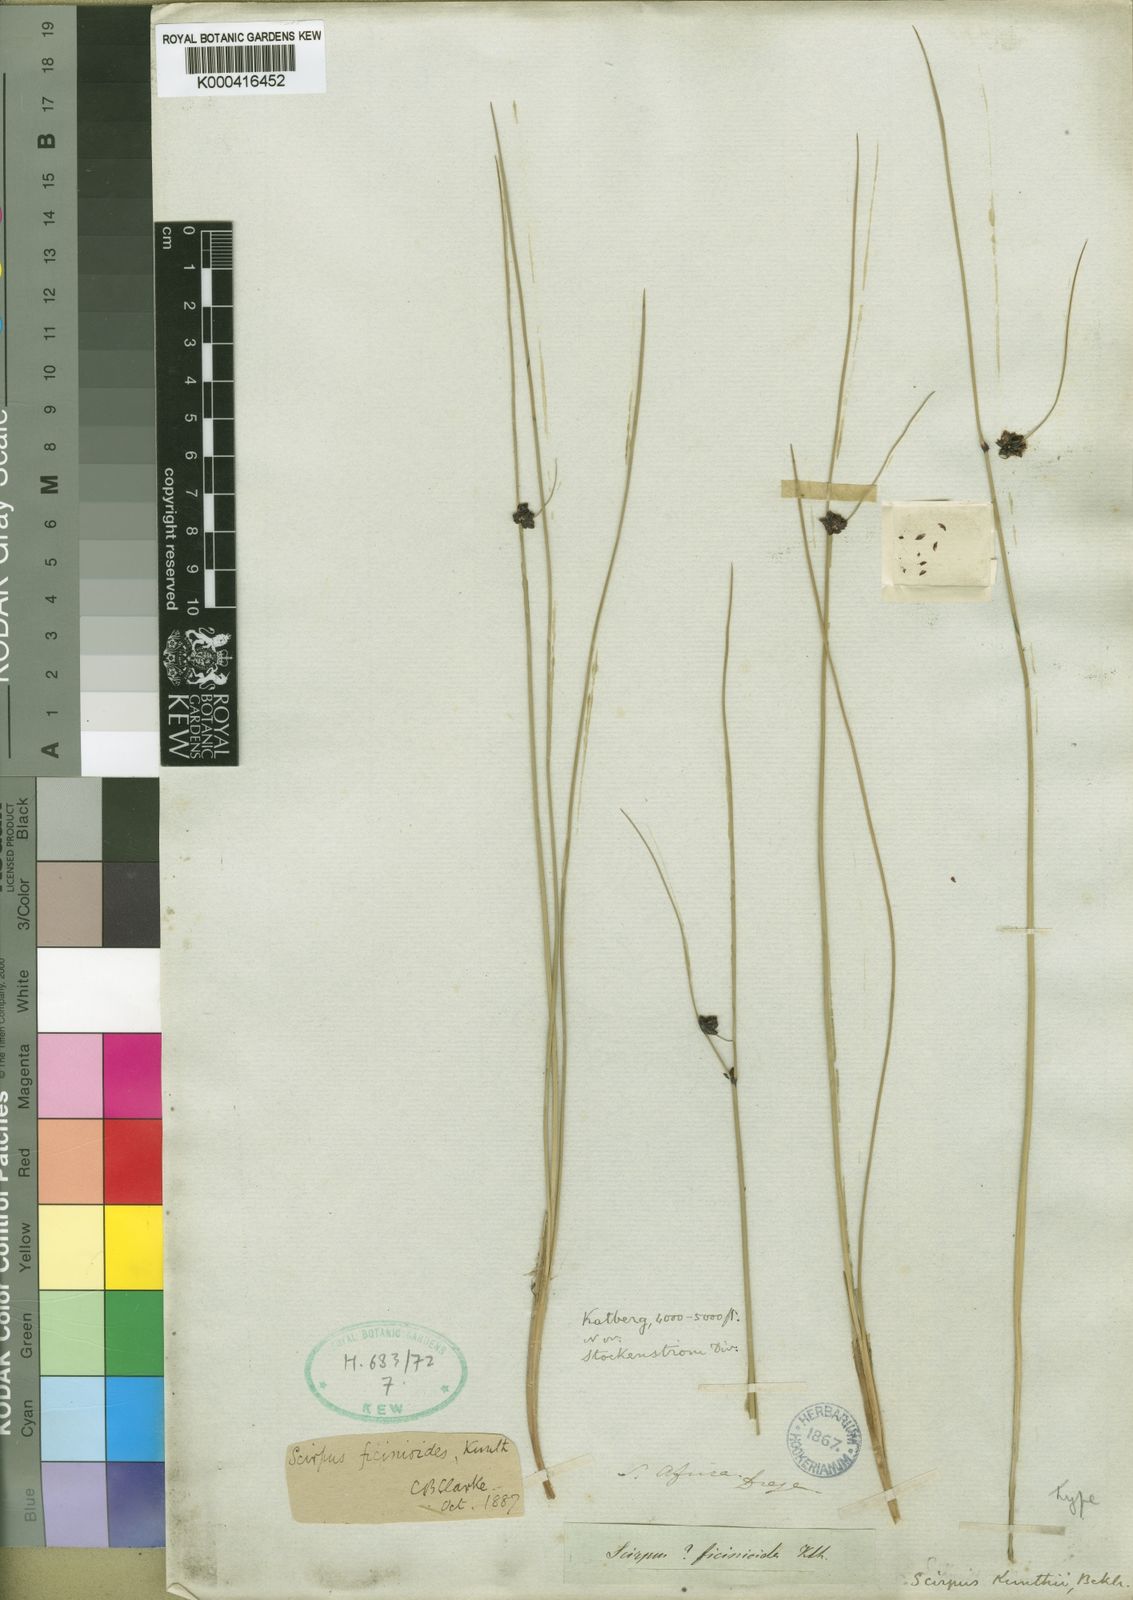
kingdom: Plantae
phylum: Tracheophyta
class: Liliopsida
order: Poales
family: Cyperaceae
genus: Ficinia
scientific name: Ficinia filiformis
